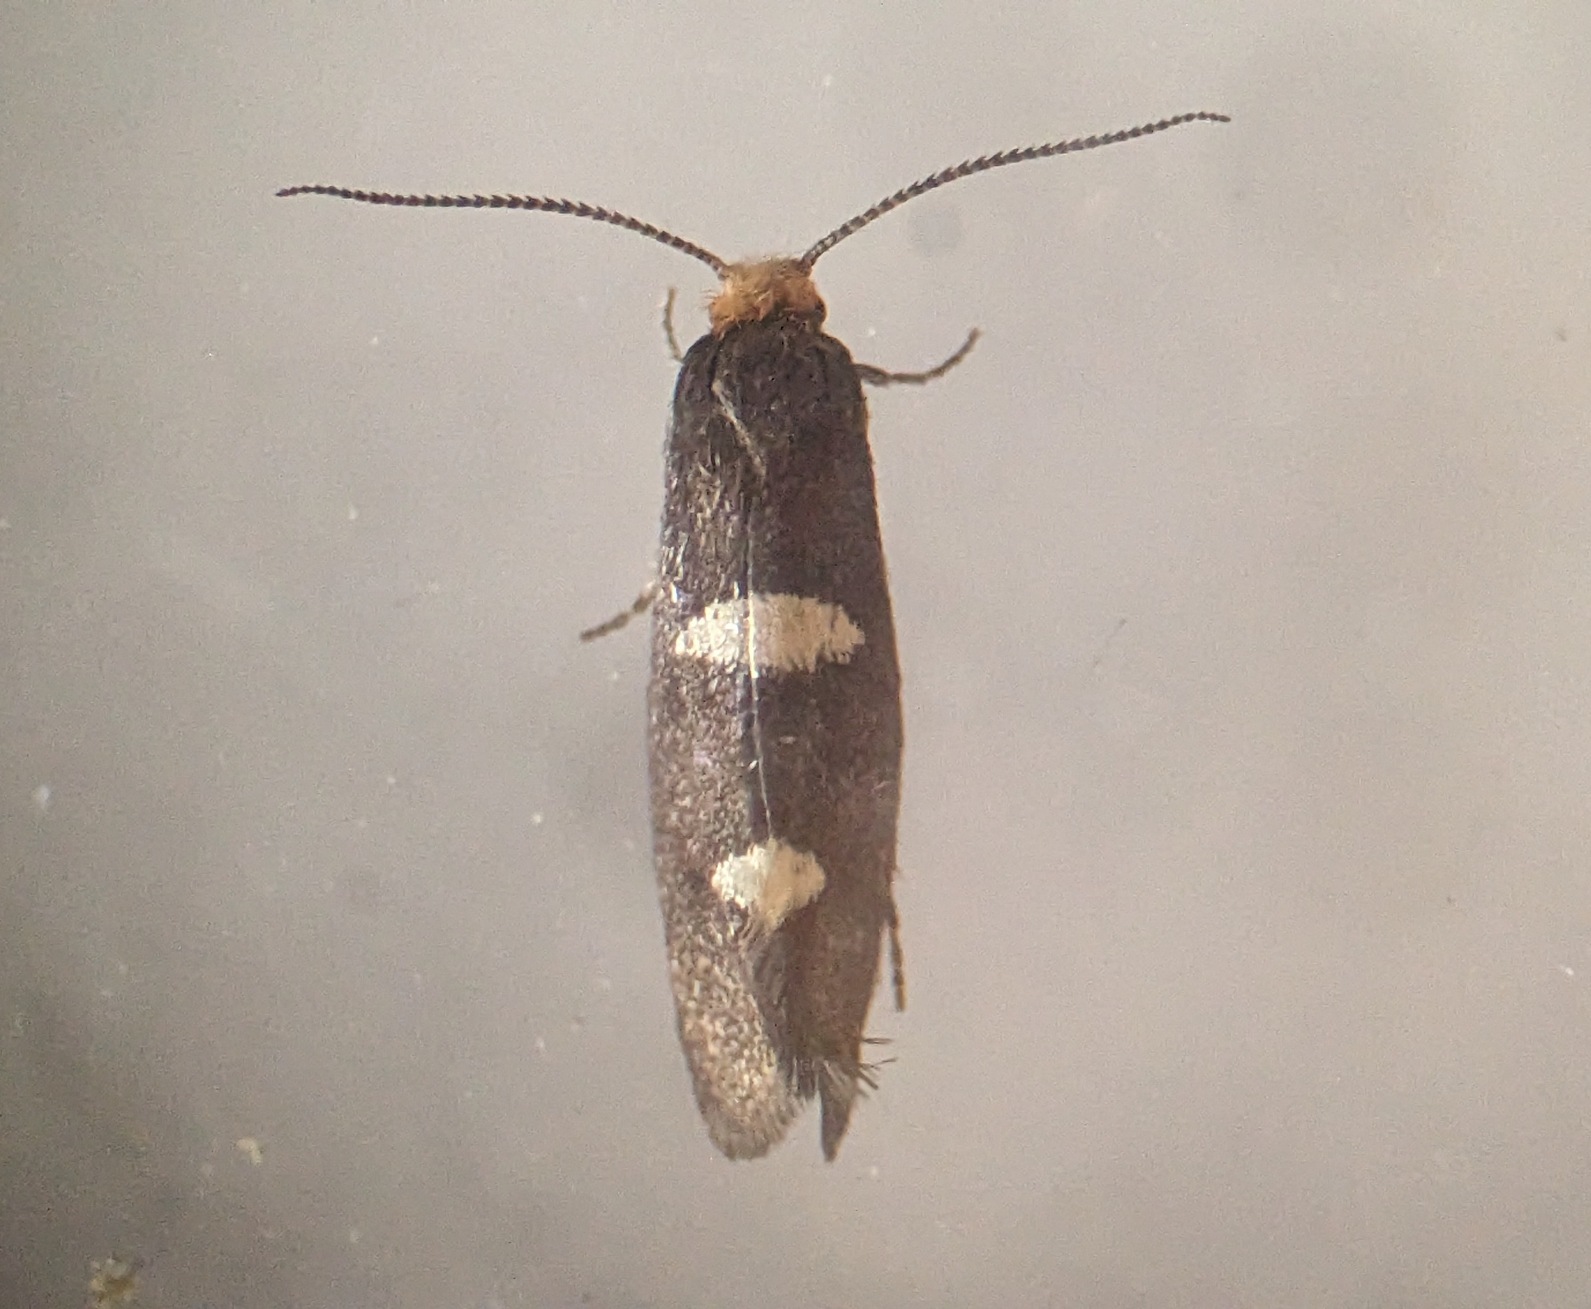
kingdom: Animalia
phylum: Arthropoda
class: Insecta
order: Lepidoptera
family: Incurvariidae
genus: Incurvaria
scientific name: Incurvaria masculella
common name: Mørkt nøjsomt møl
